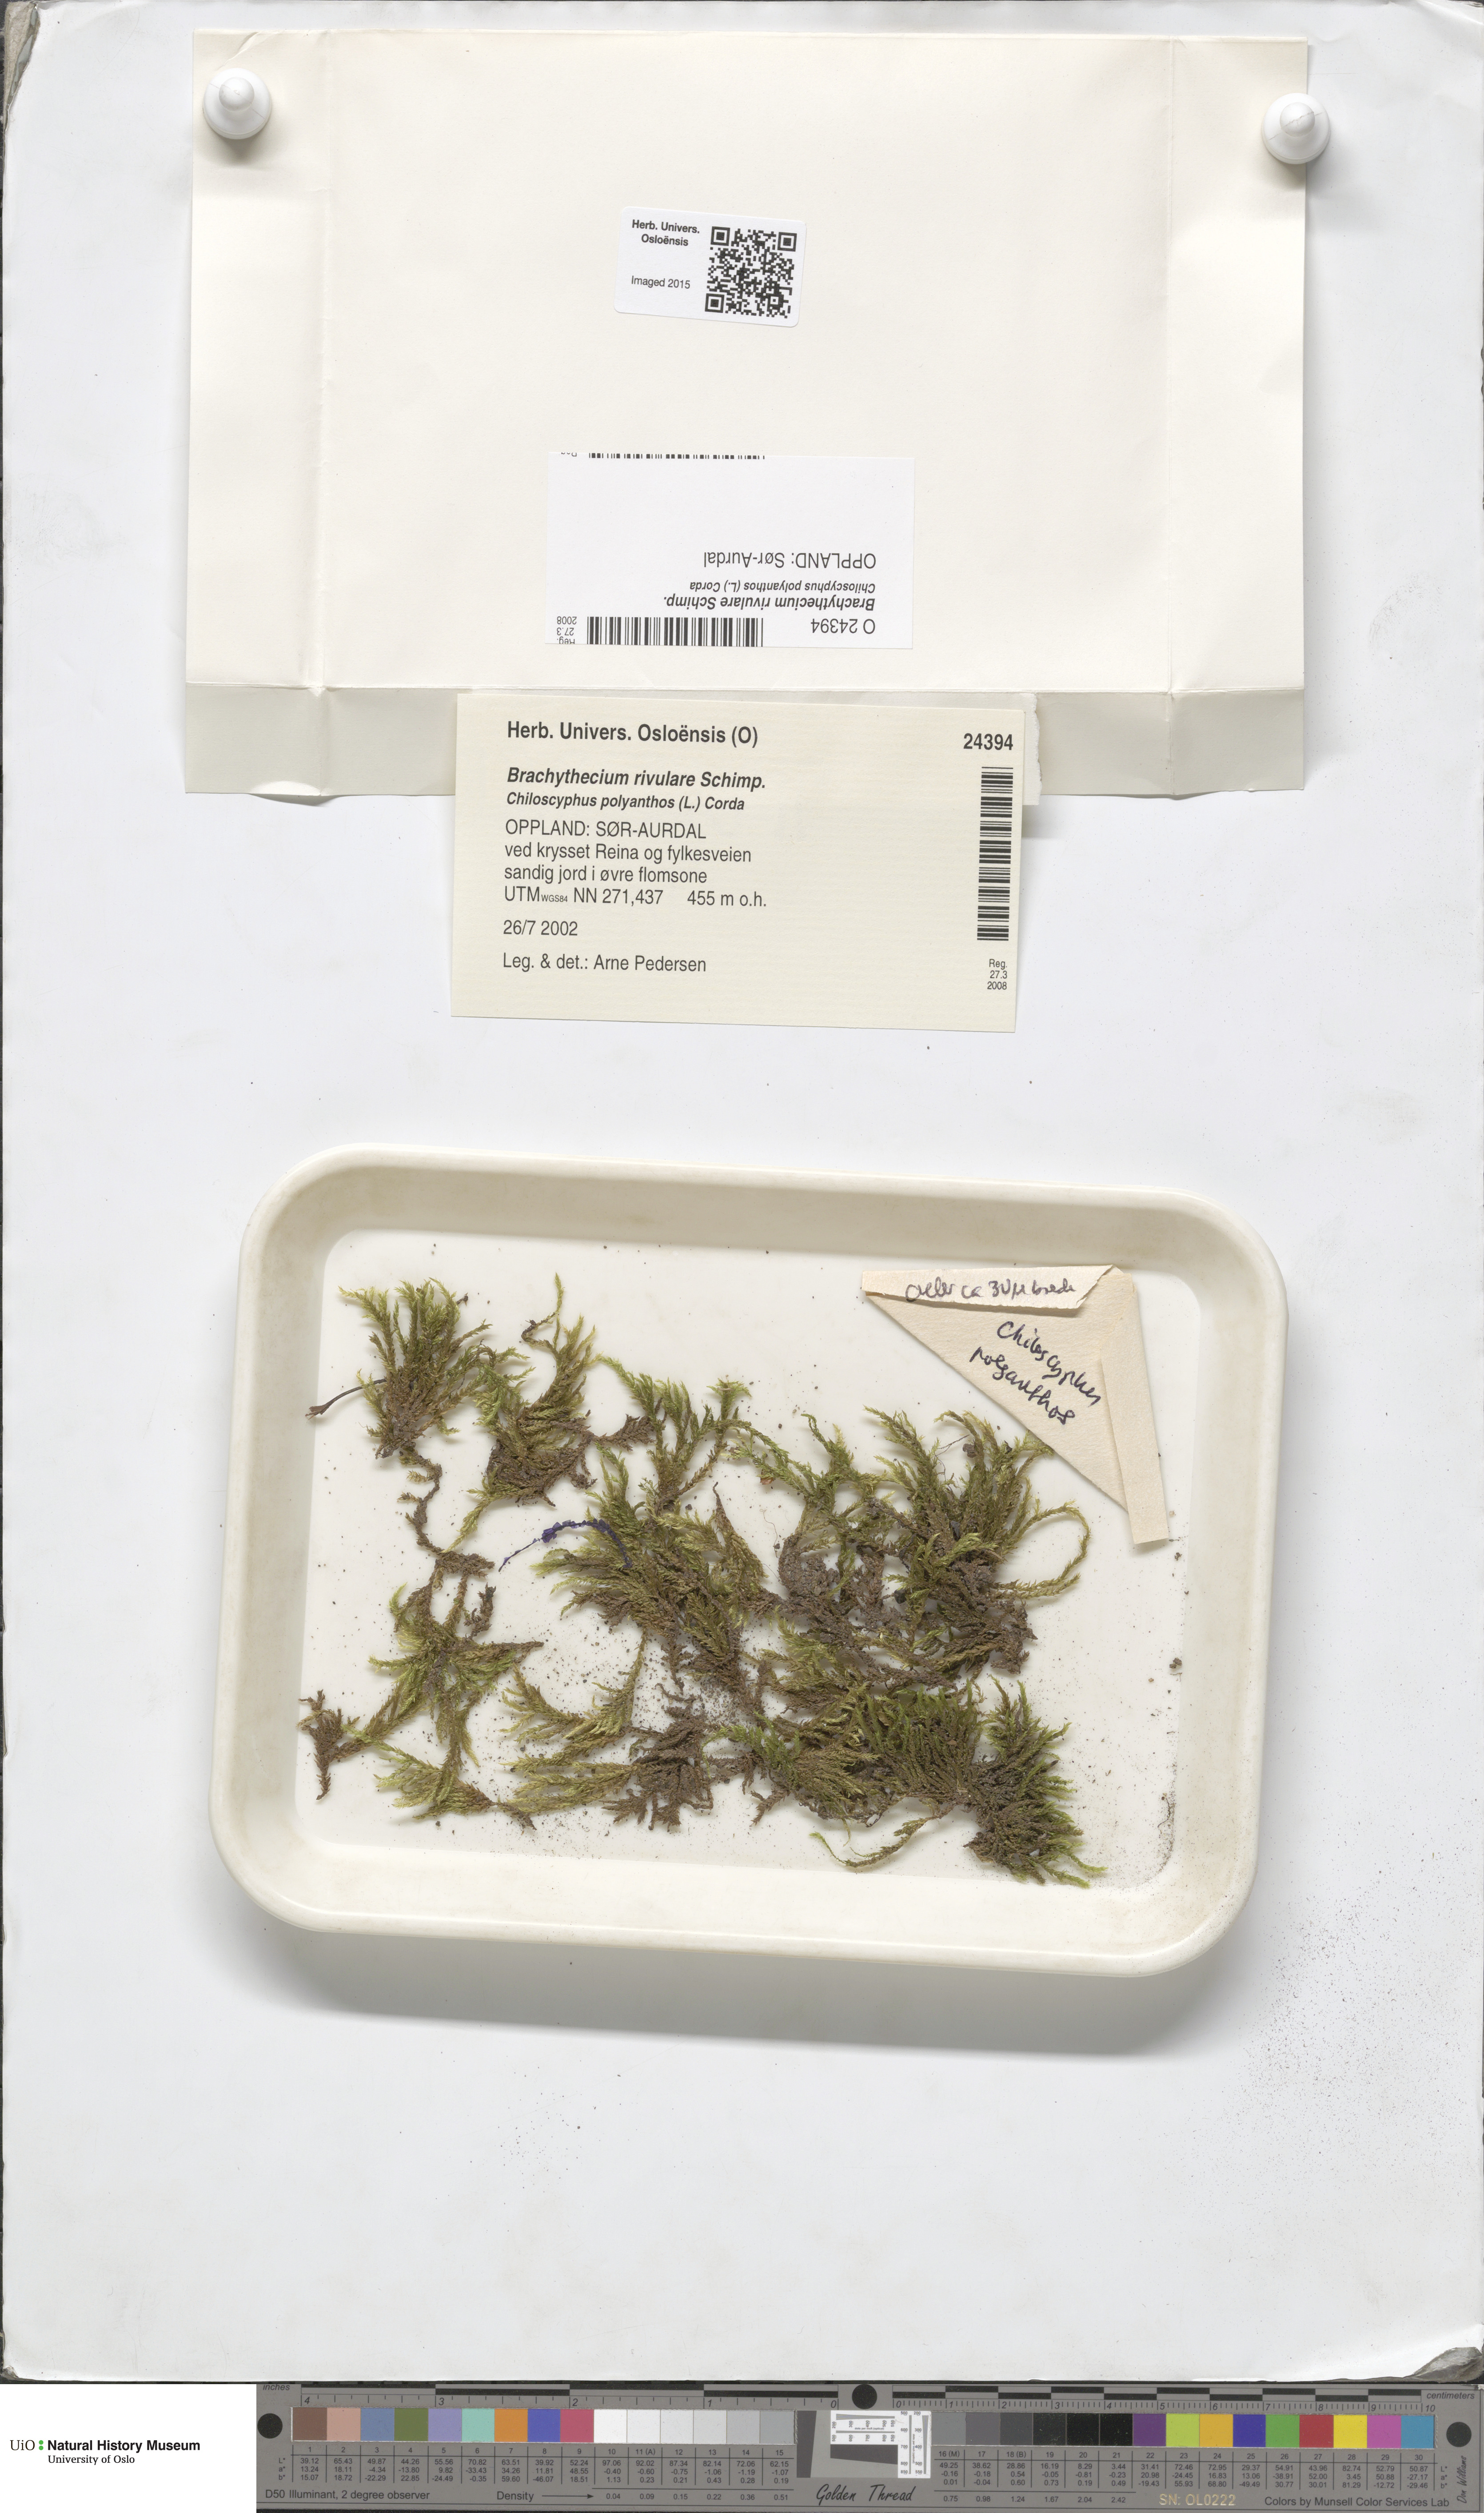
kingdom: Plantae
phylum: Bryophyta
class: Bryopsida
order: Hypnales
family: Brachytheciaceae
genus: Brachythecium
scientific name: Brachythecium rivulare
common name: River ragged moss
